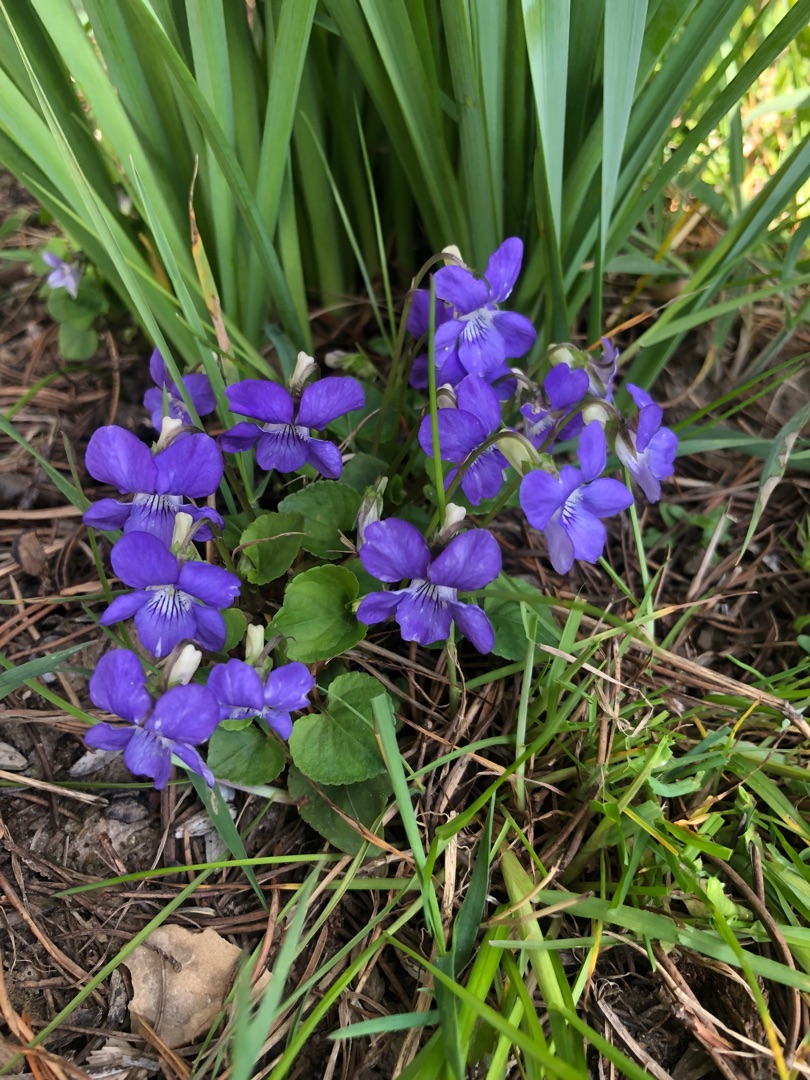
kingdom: Plantae
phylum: Tracheophyta
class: Magnoliopsida
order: Malpighiales
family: Violaceae
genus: Viola
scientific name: Viola riviniana
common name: Krat-viol
